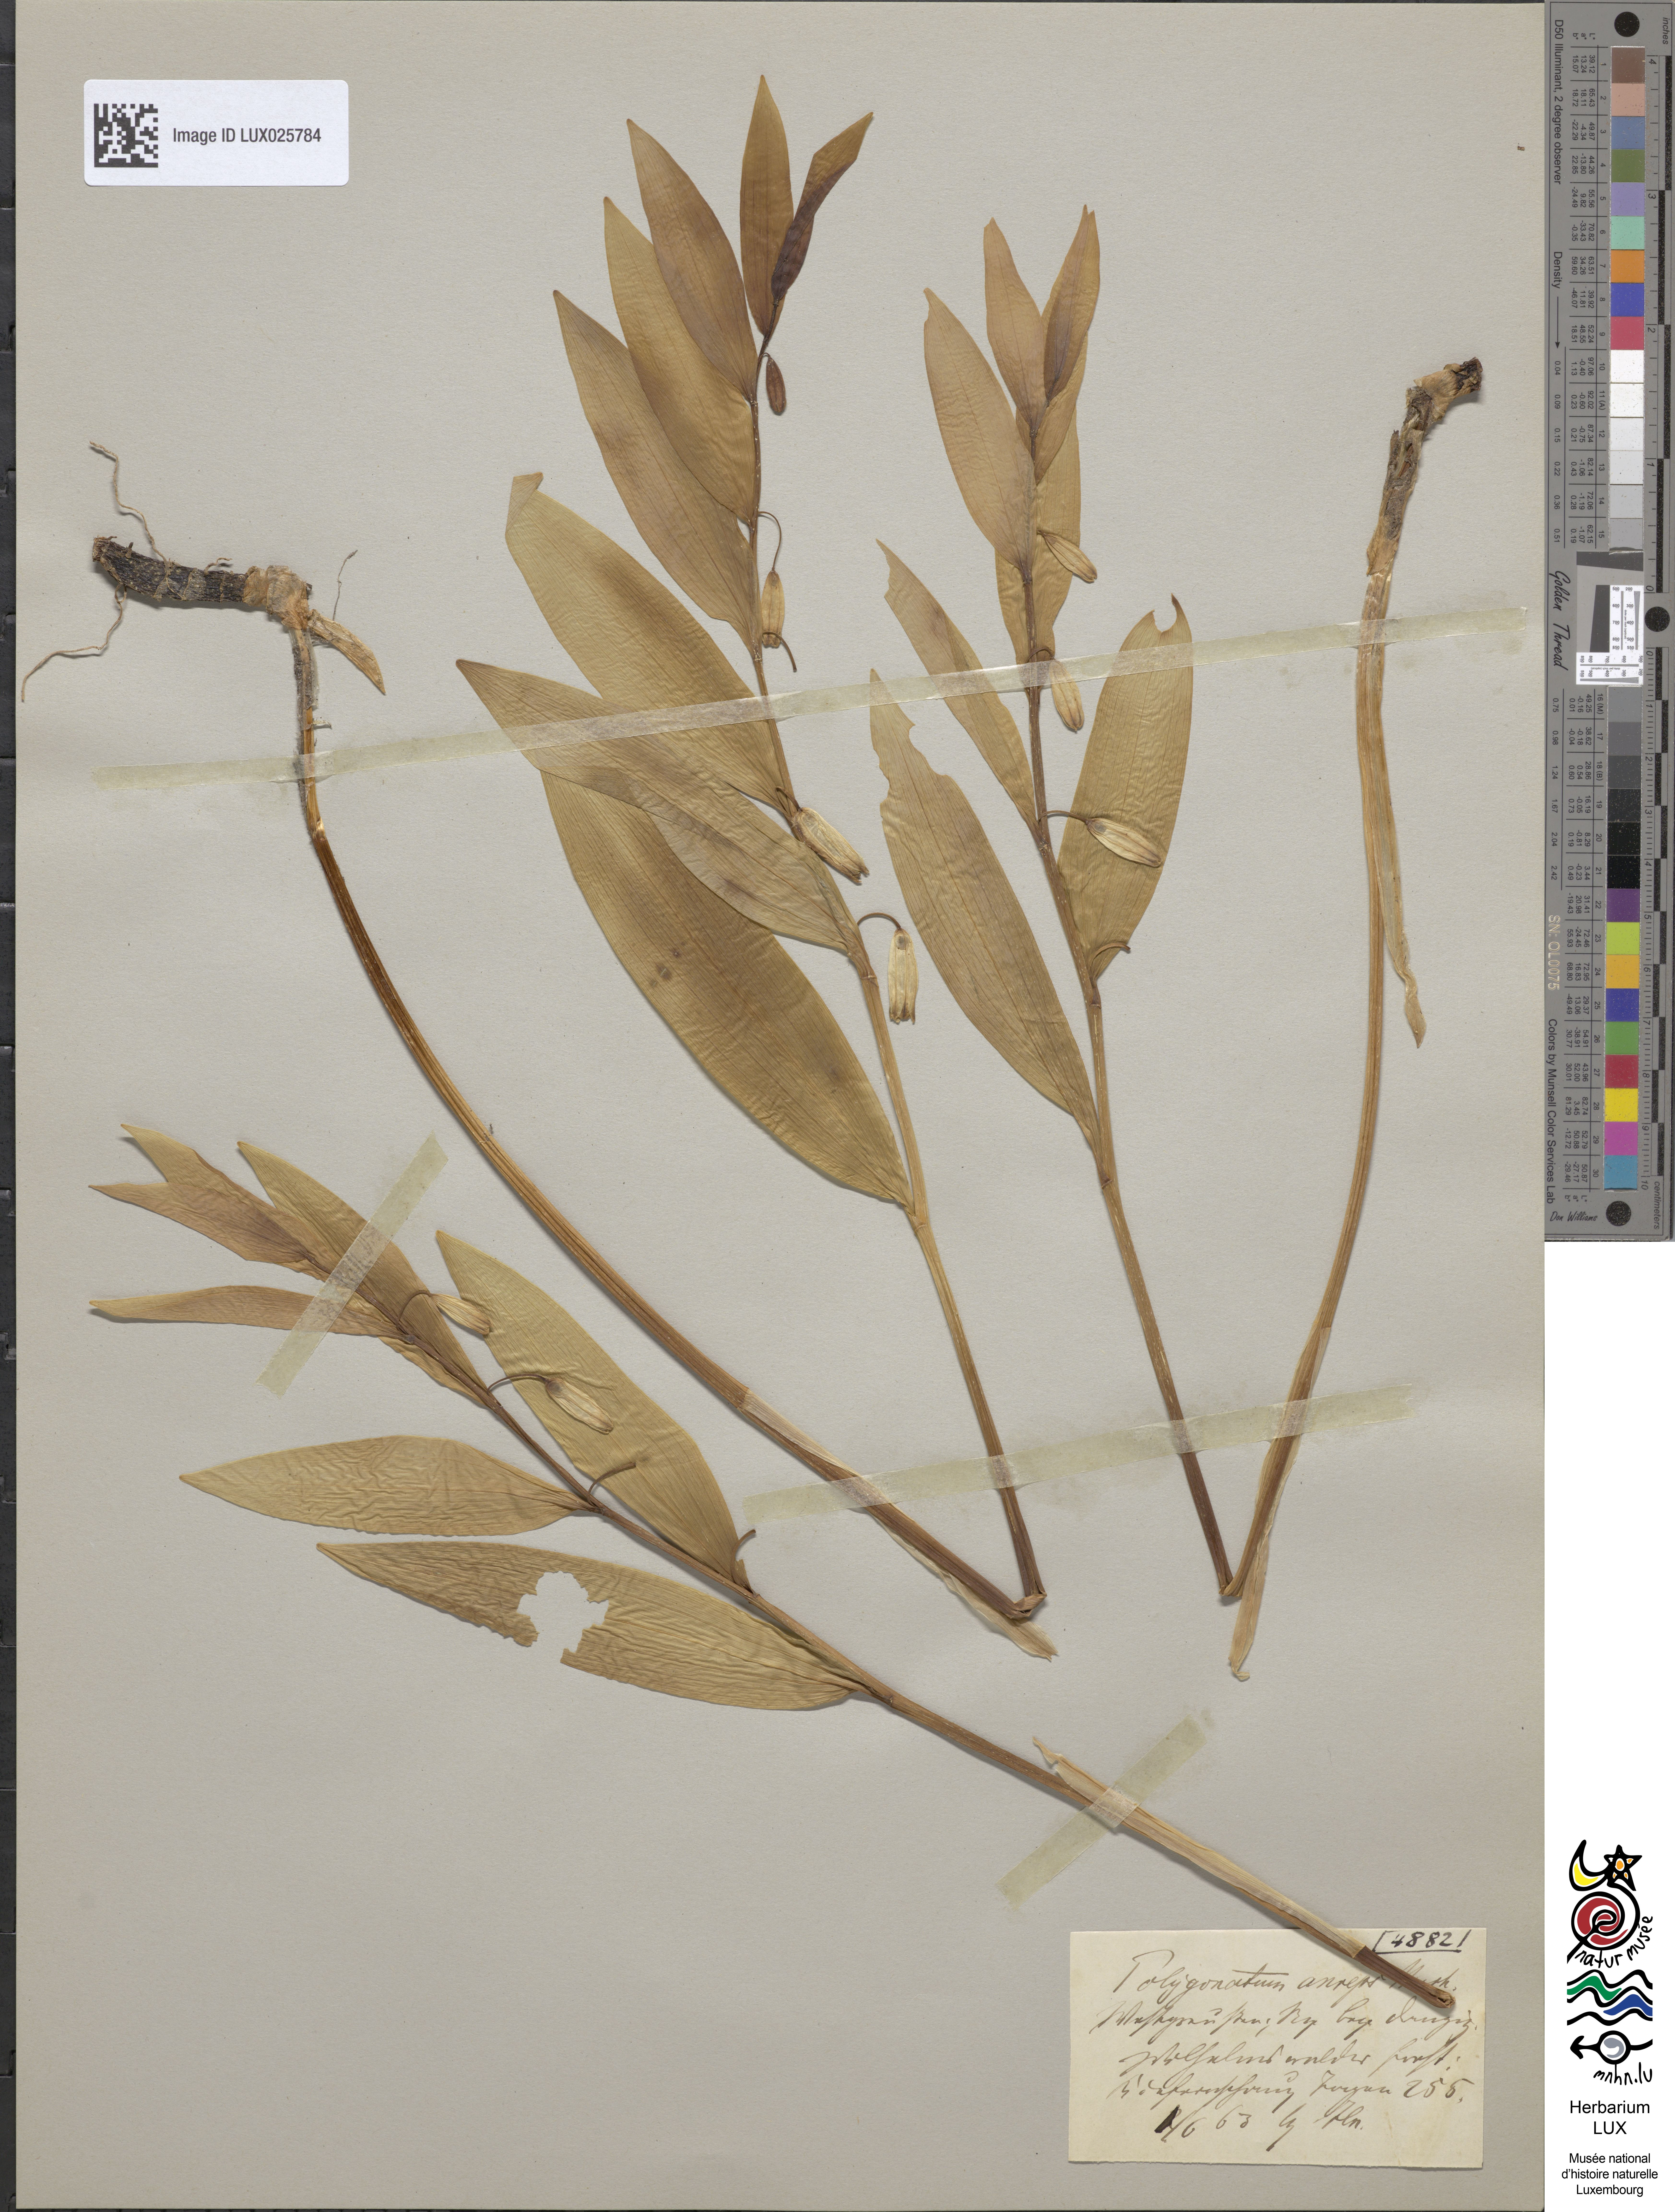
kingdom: Plantae
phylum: Tracheophyta
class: Liliopsida
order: Asparagales
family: Asparagaceae
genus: Polygonatum
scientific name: Polygonatum odoratum
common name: Angular solomon's-seal
